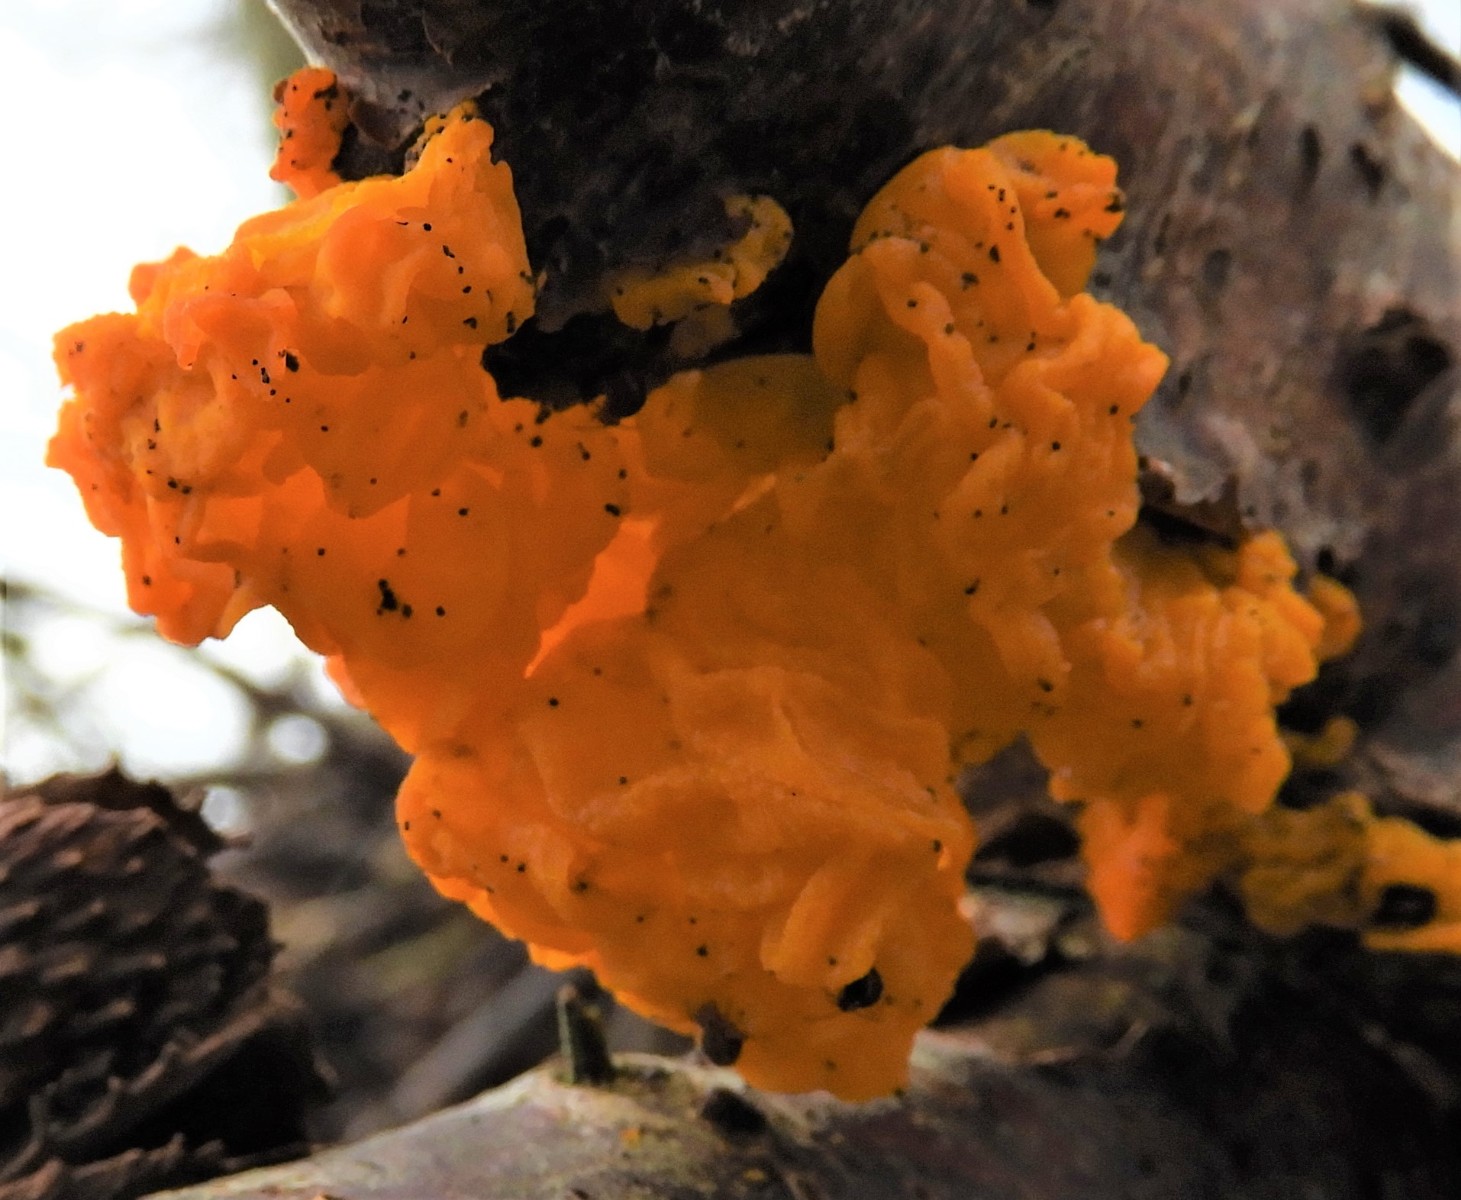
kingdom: Fungi
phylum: Basidiomycota
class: Tremellomycetes
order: Tremellales
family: Tremellaceae
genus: Tremella
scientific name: Tremella mesenterica
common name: gul bævresvamp
